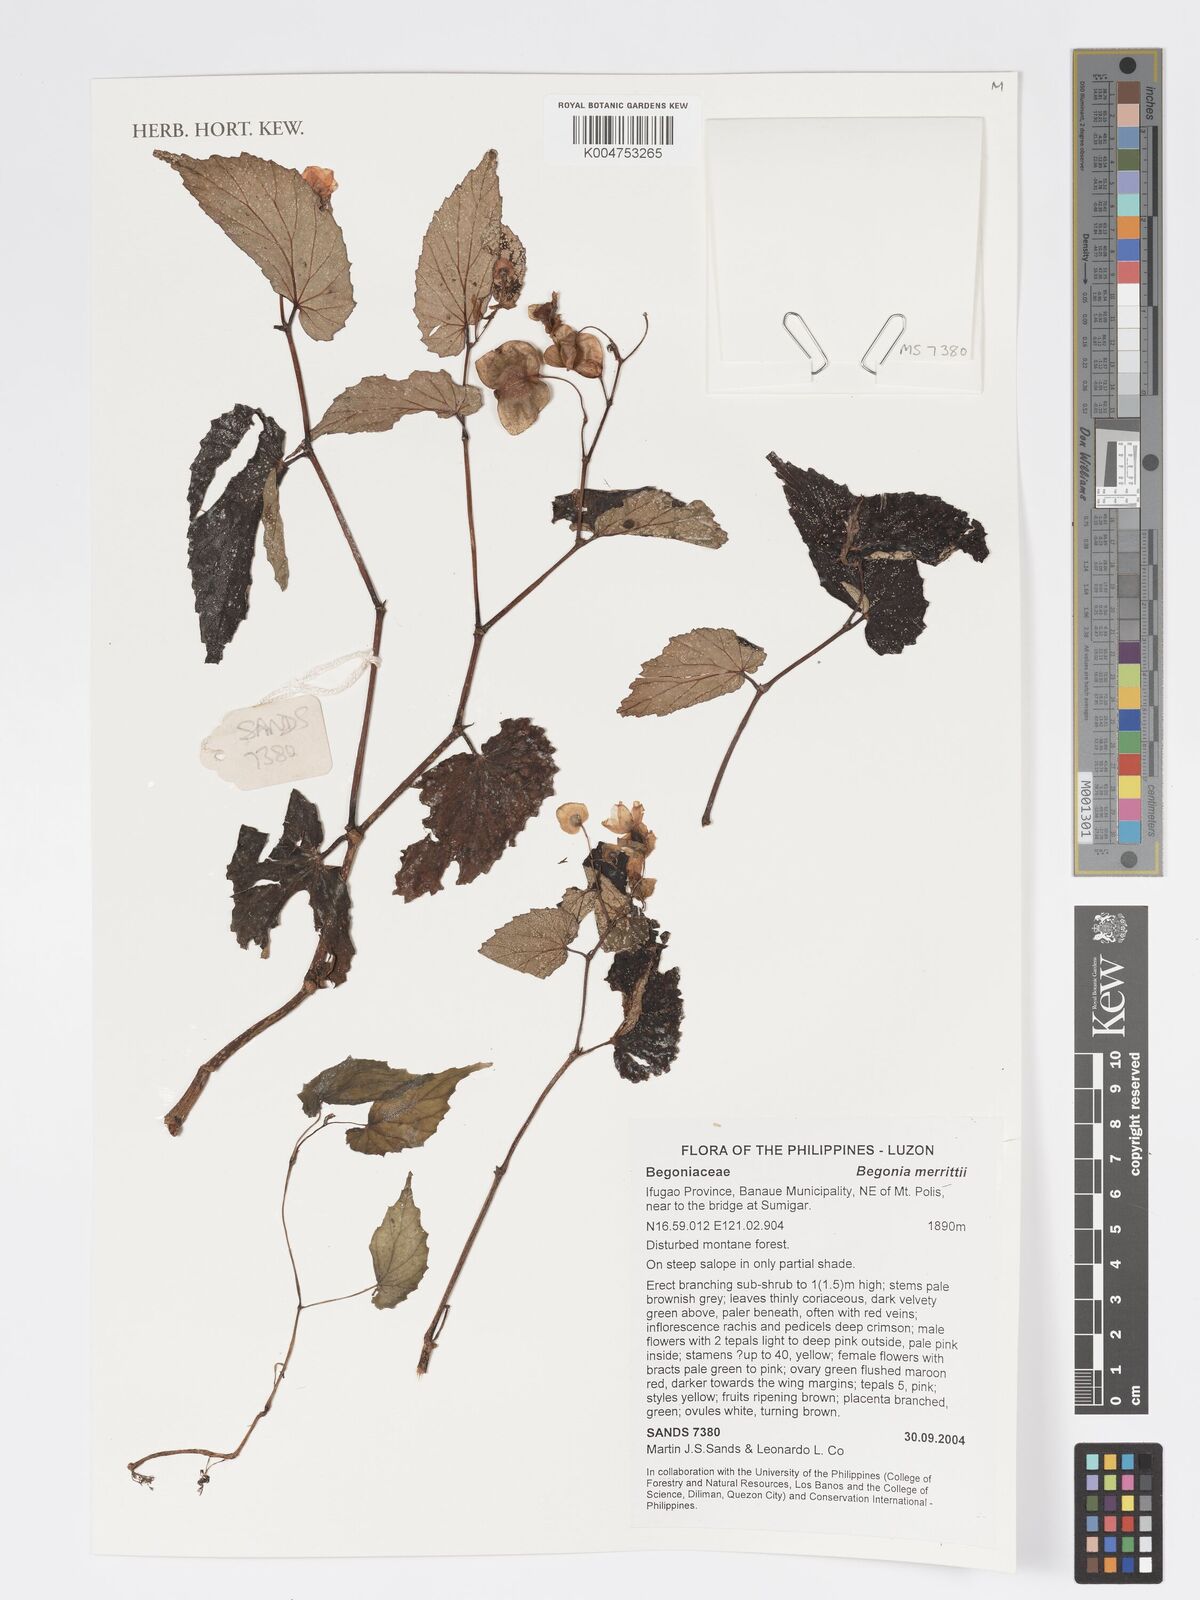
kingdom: Plantae
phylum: Tracheophyta
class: Magnoliopsida
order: Cucurbitales
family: Begoniaceae
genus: Begonia
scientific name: Begonia merrittii
